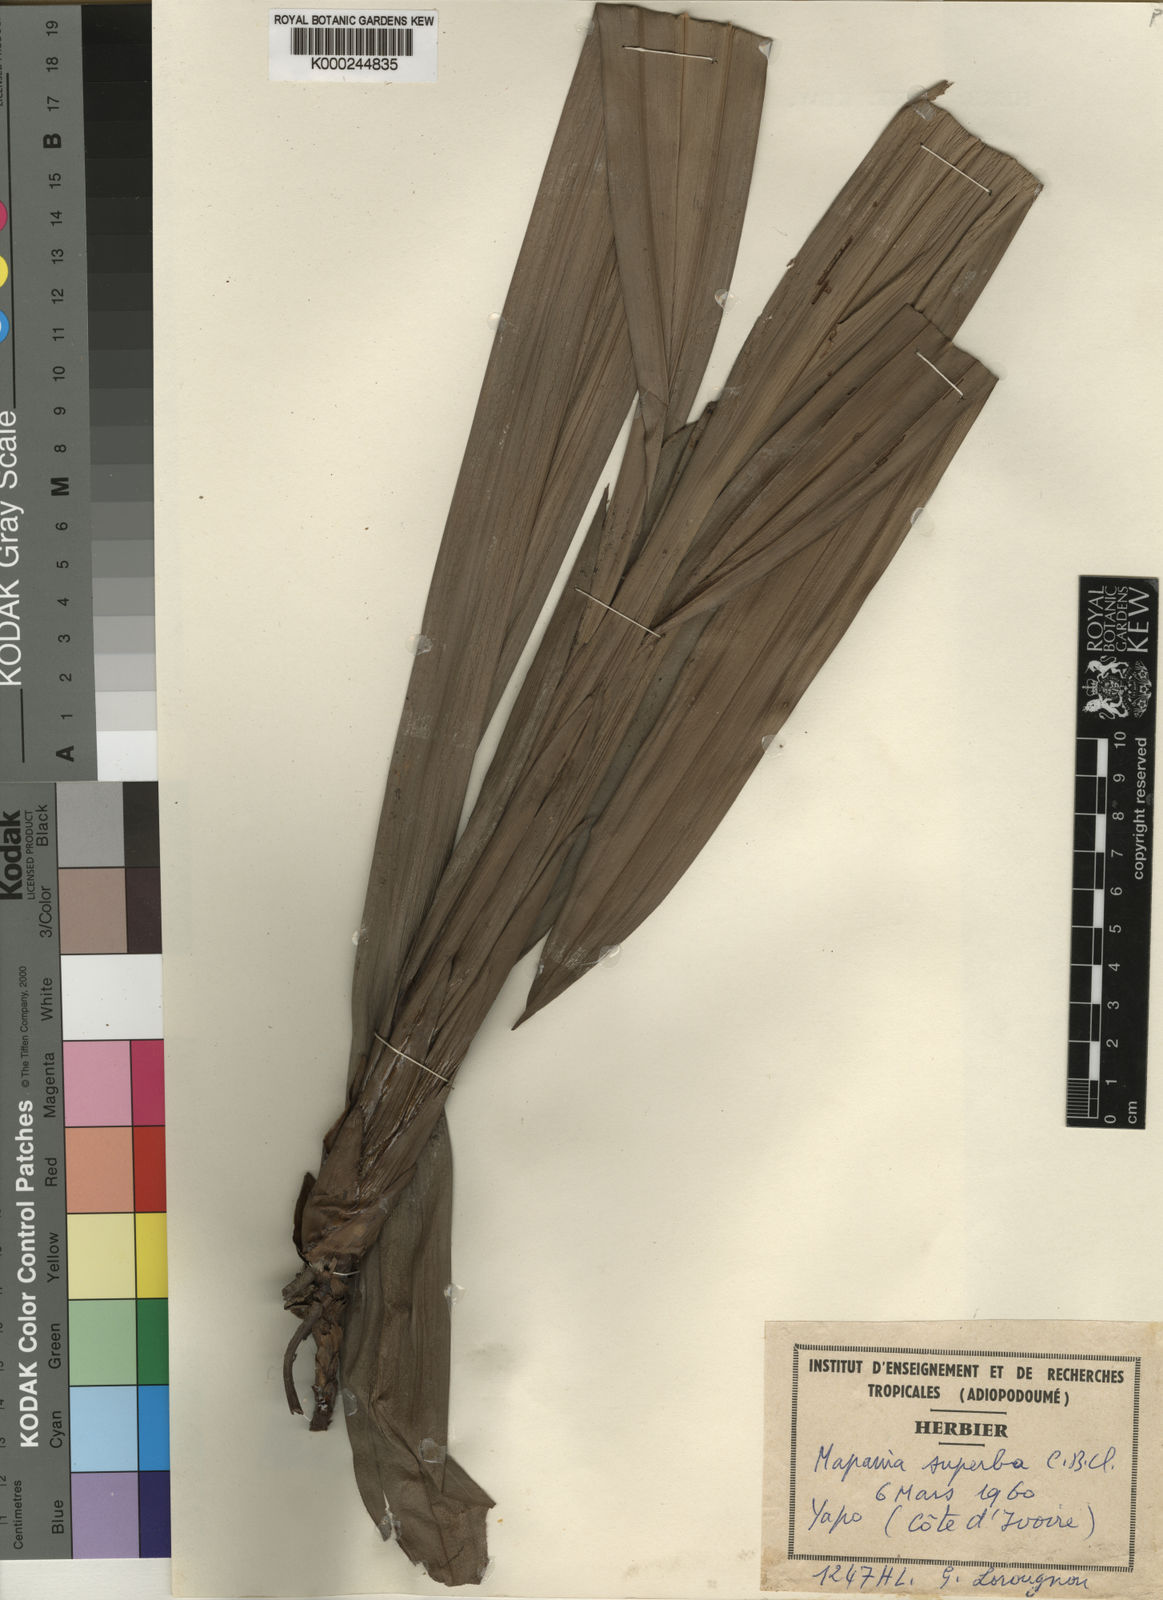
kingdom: Plantae
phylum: Tracheophyta
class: Liliopsida
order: Poales
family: Cyperaceae
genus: Mapania
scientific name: Mapania ivorensis
